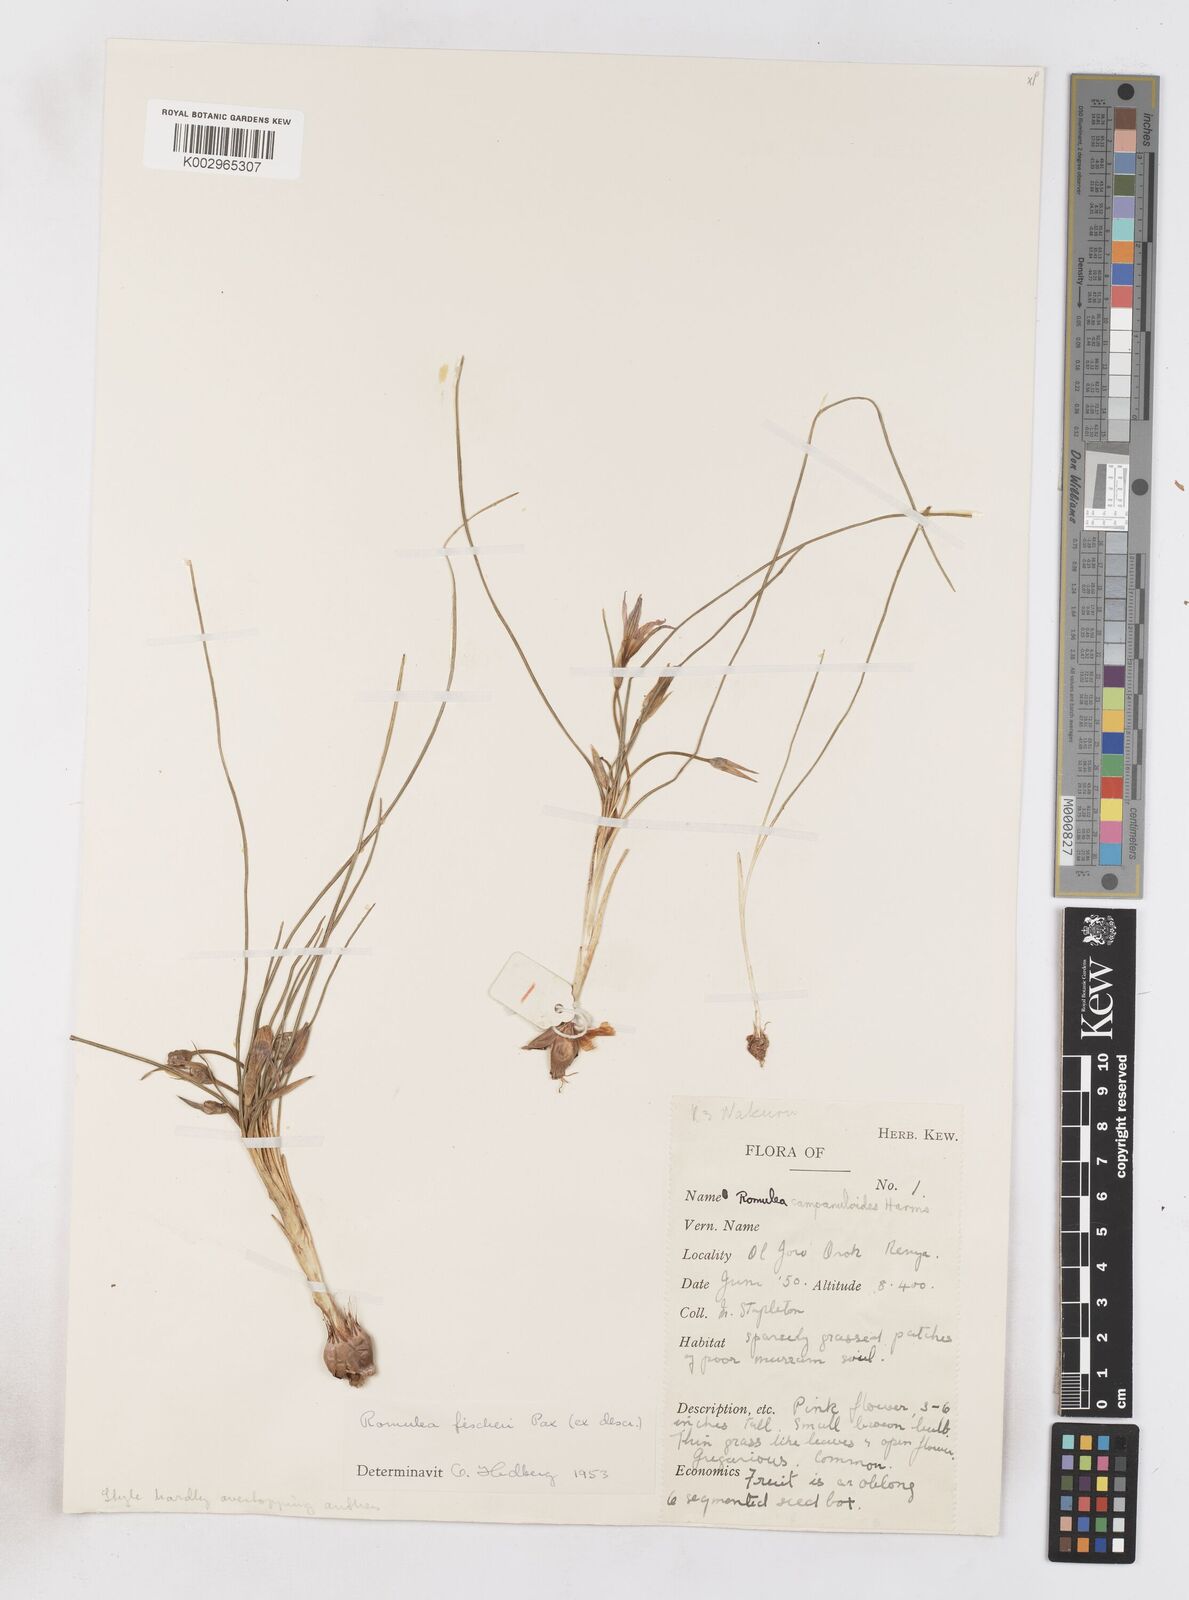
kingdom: Plantae
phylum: Tracheophyta
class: Liliopsida
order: Asparagales
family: Iridaceae
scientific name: Iridaceae
